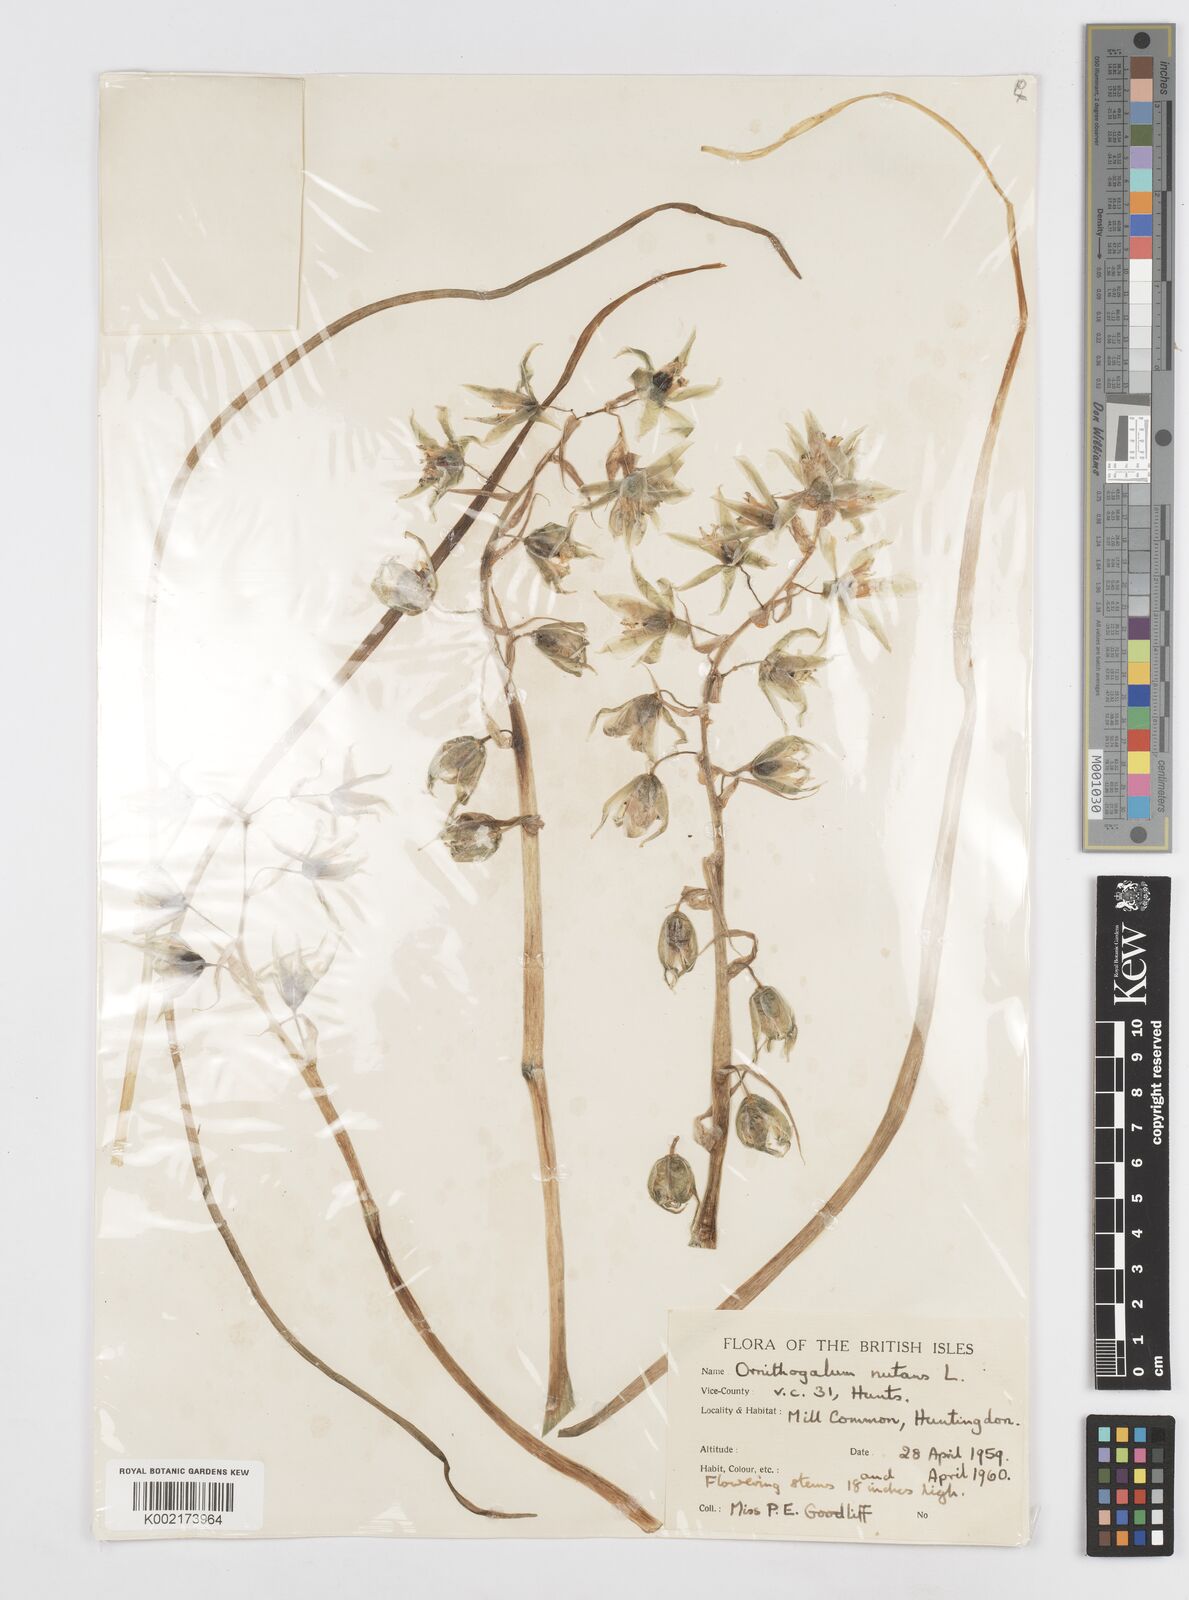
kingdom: Plantae
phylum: Tracheophyta
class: Liliopsida
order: Asparagales
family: Asparagaceae
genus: Ornithogalum
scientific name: Ornithogalum nutans
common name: Drooping star-of-bethlehem
